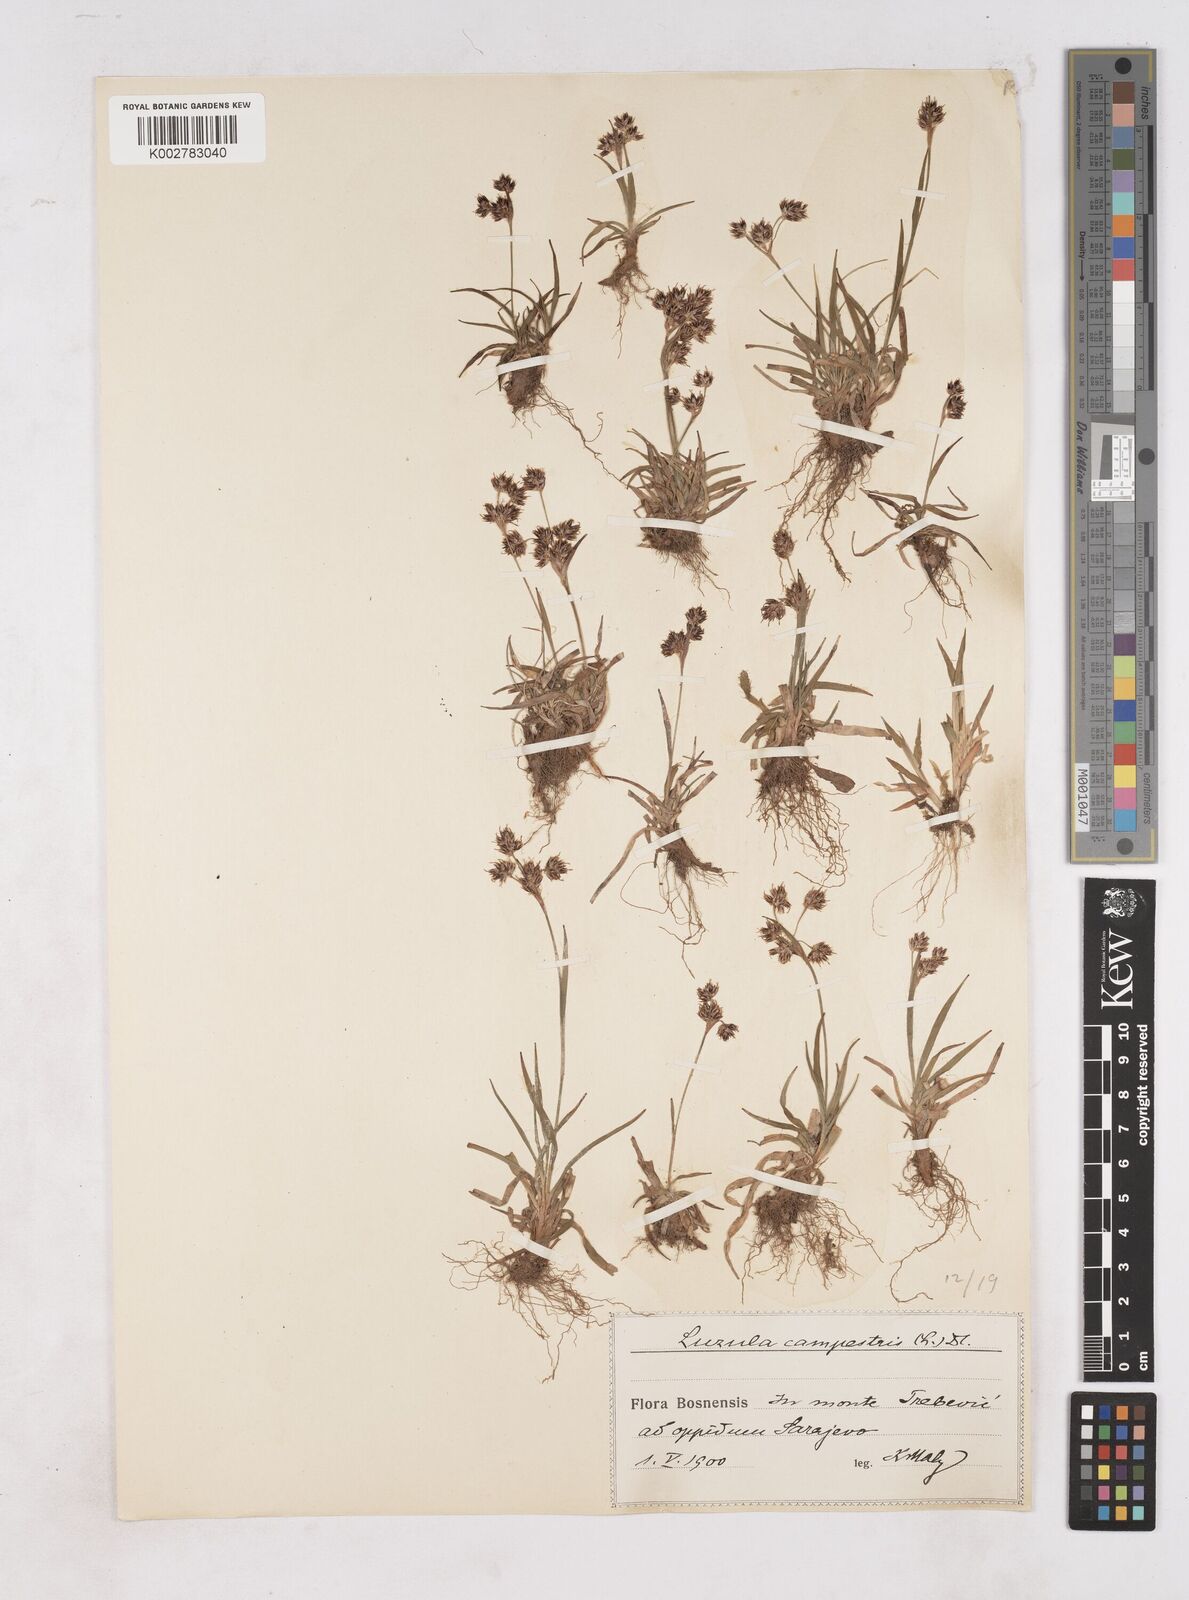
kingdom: Plantae
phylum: Tracheophyta
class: Liliopsida
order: Poales
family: Juncaceae
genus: Luzula
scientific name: Luzula campestris
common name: Field wood-rush
